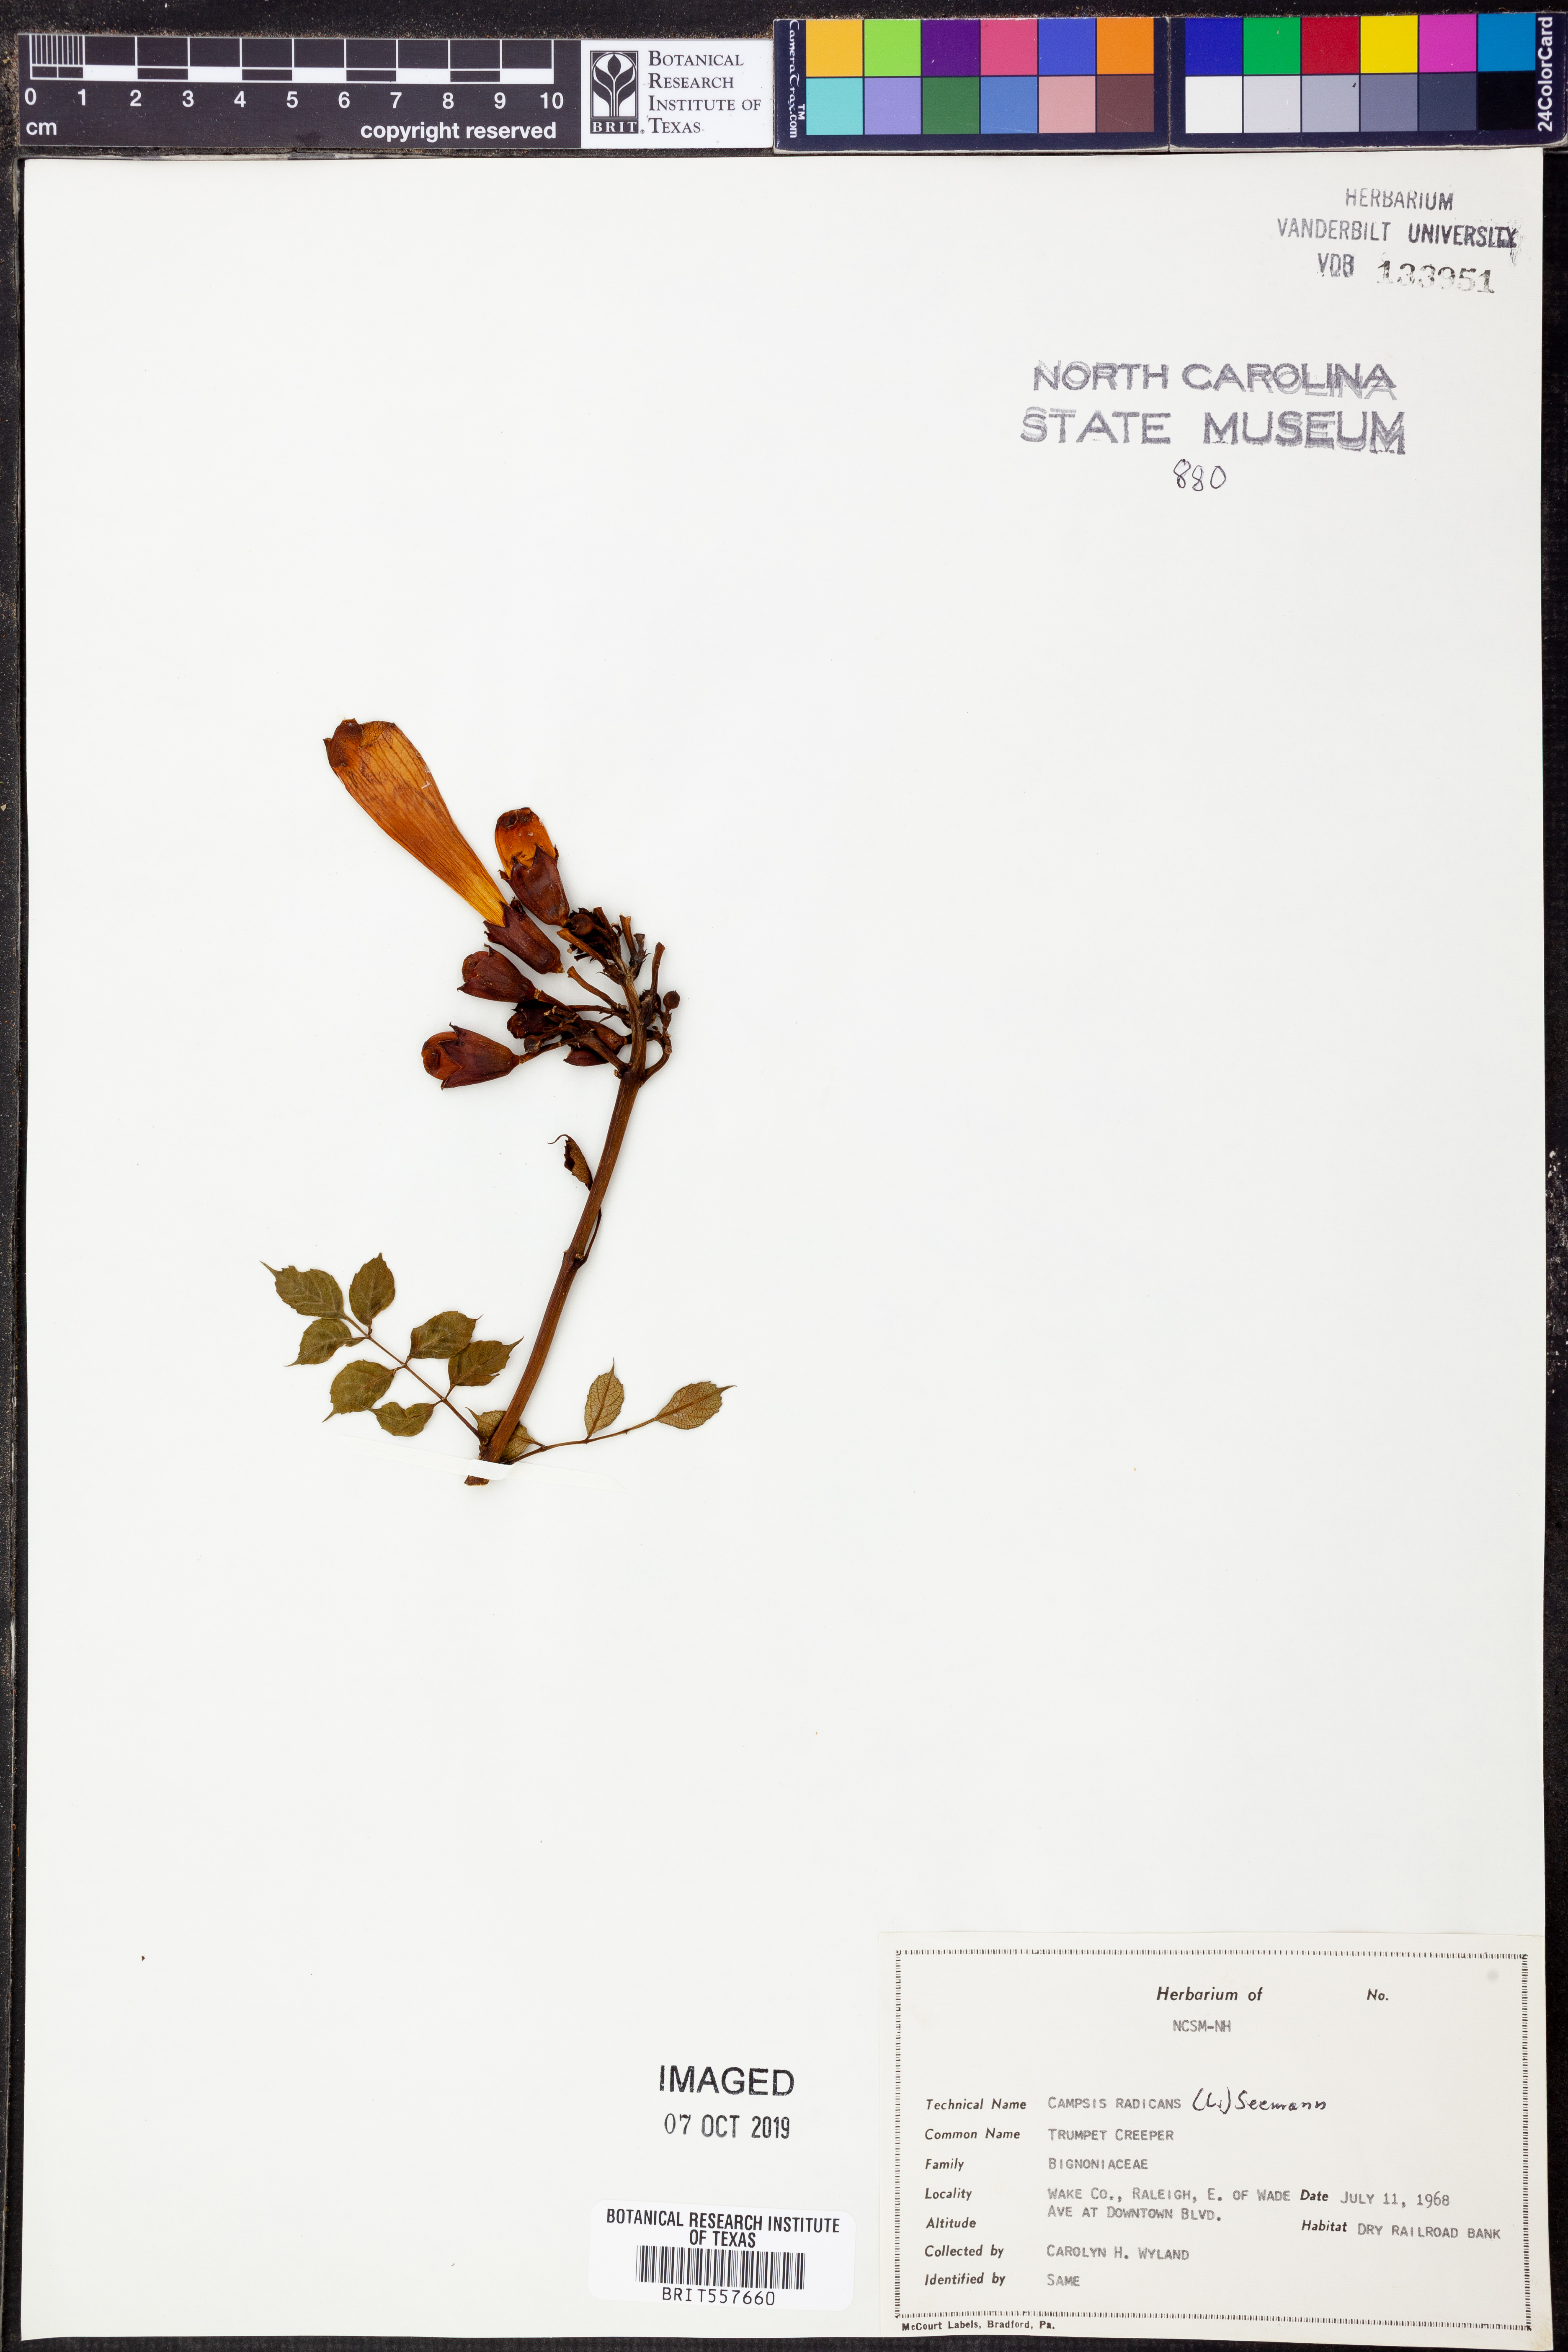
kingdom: Plantae
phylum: Tracheophyta
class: Magnoliopsida
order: Lamiales
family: Bignoniaceae
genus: Campsis
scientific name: Campsis radicans
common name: Trumpet-creeper
